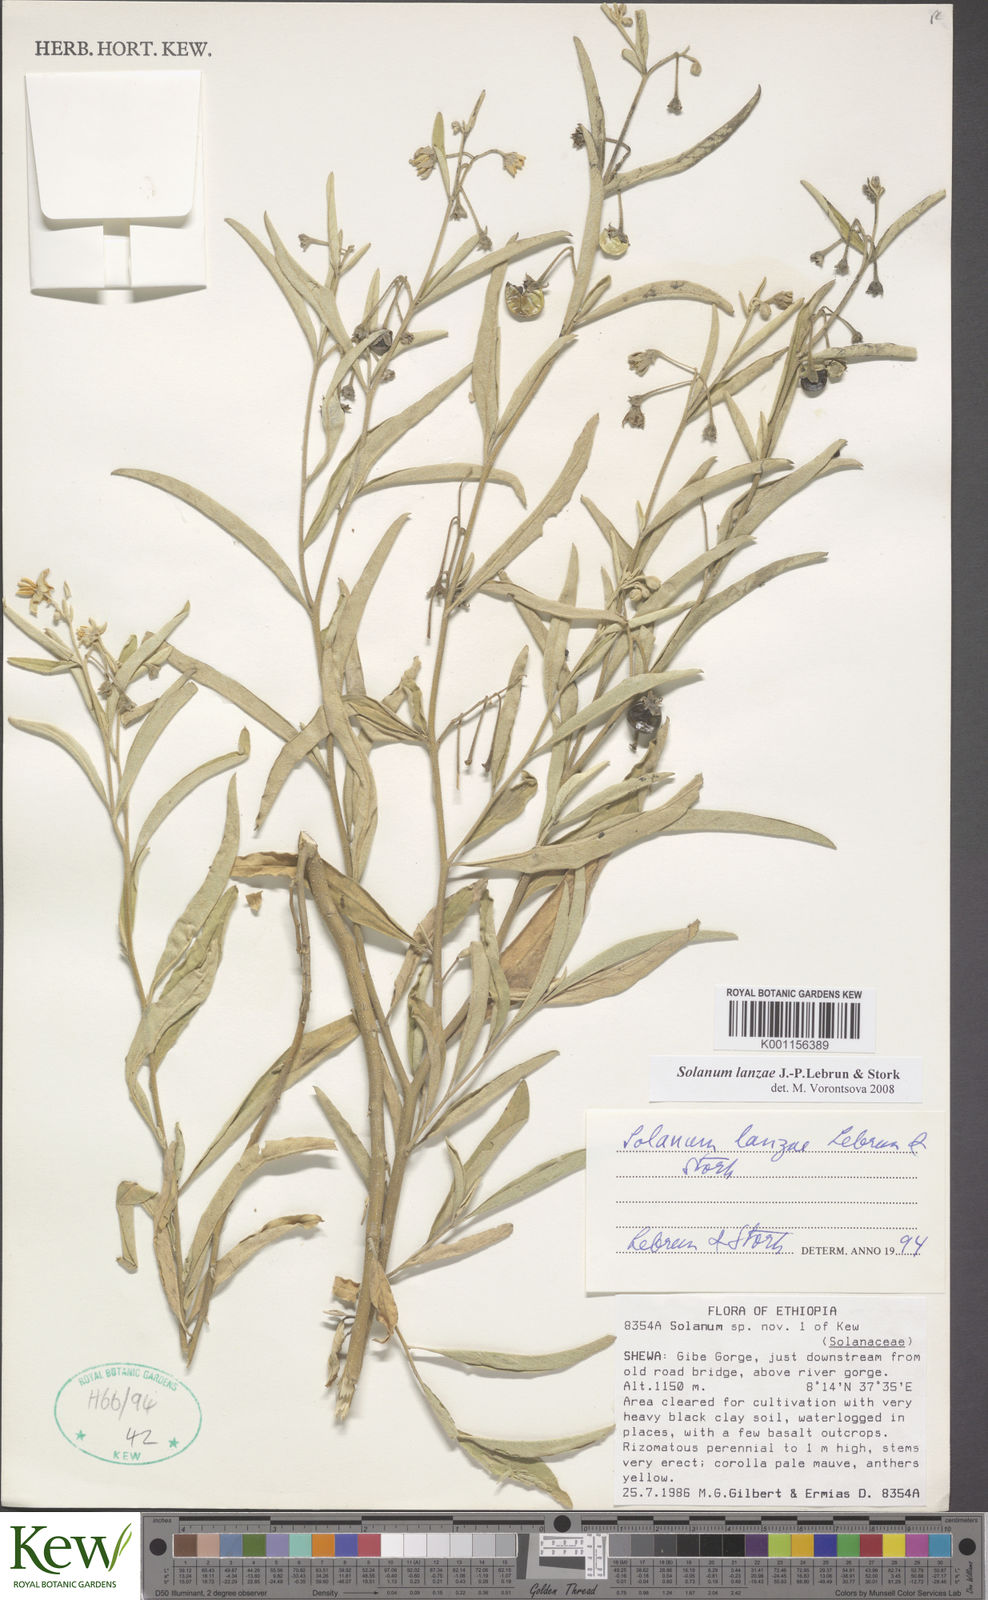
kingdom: Plantae
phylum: Tracheophyta
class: Magnoliopsida
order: Solanales
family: Solanaceae
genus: Solanum
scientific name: Solanum lanzae
